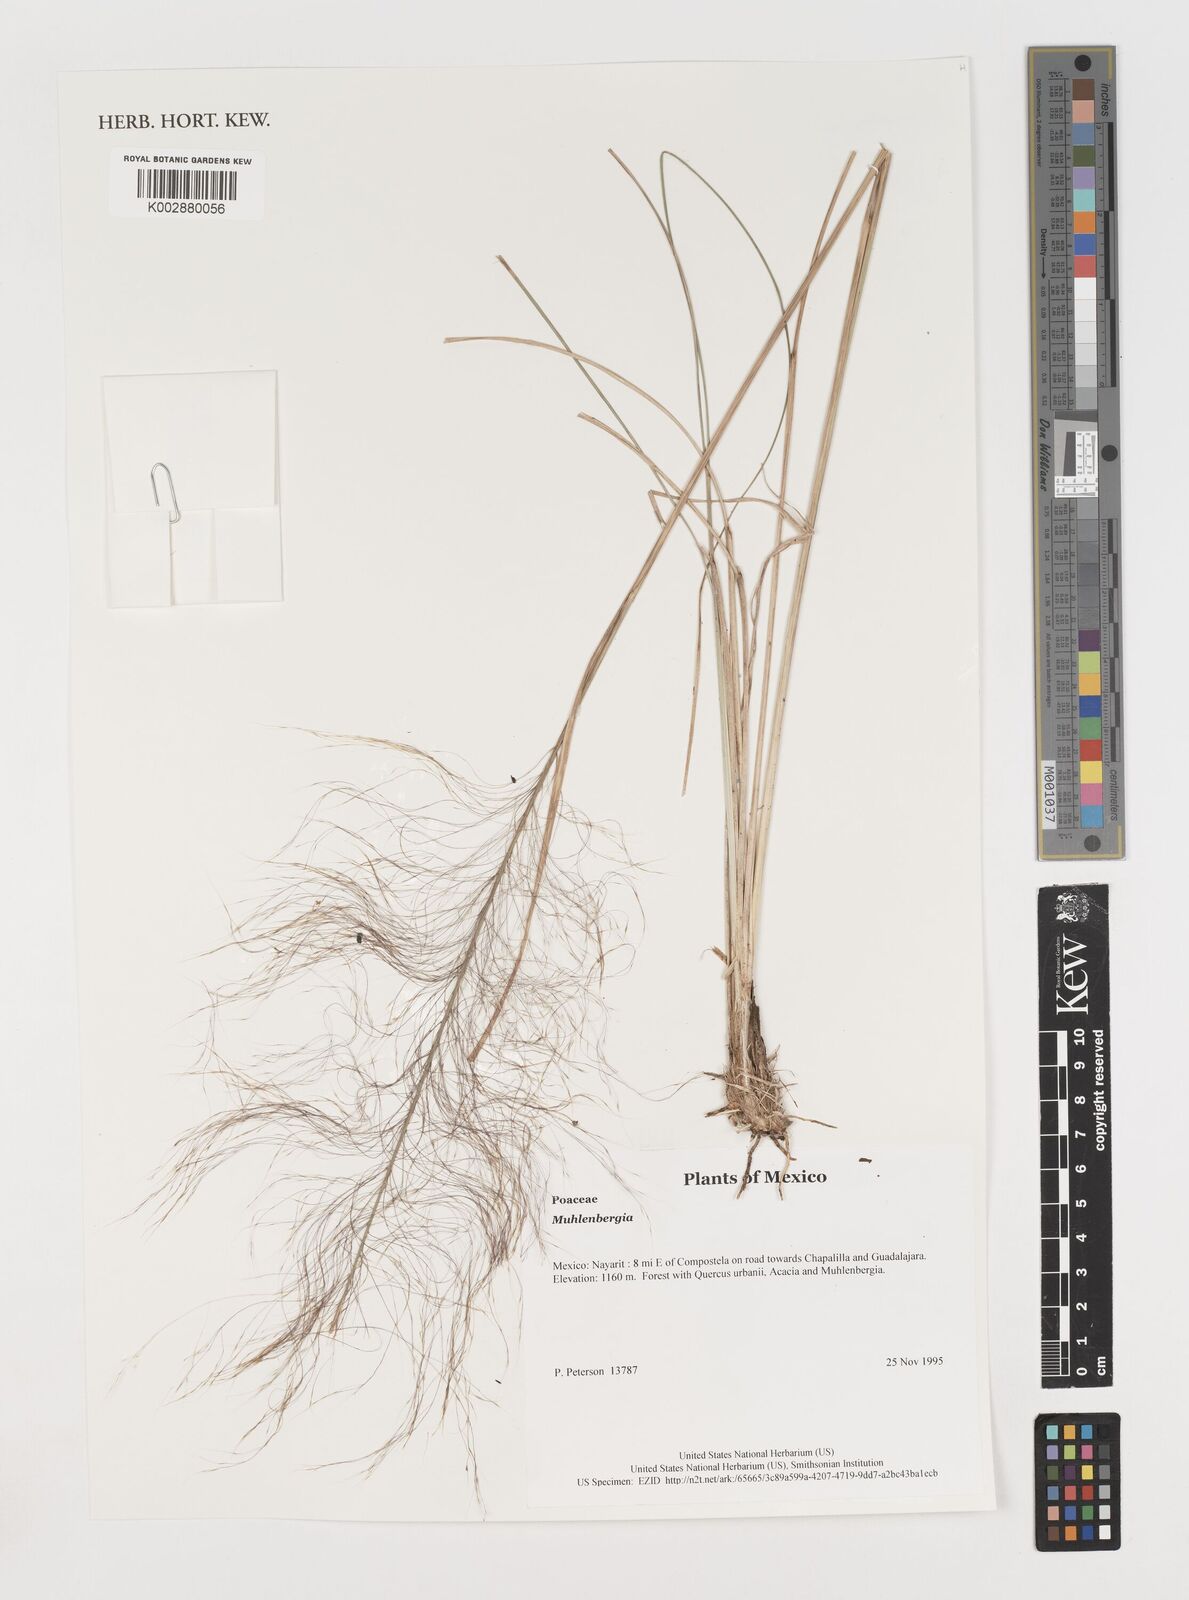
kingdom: Plantae
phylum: Tracheophyta
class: Liliopsida
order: Poales
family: Poaceae
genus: Muhlenbergia
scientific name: Muhlenbergia
